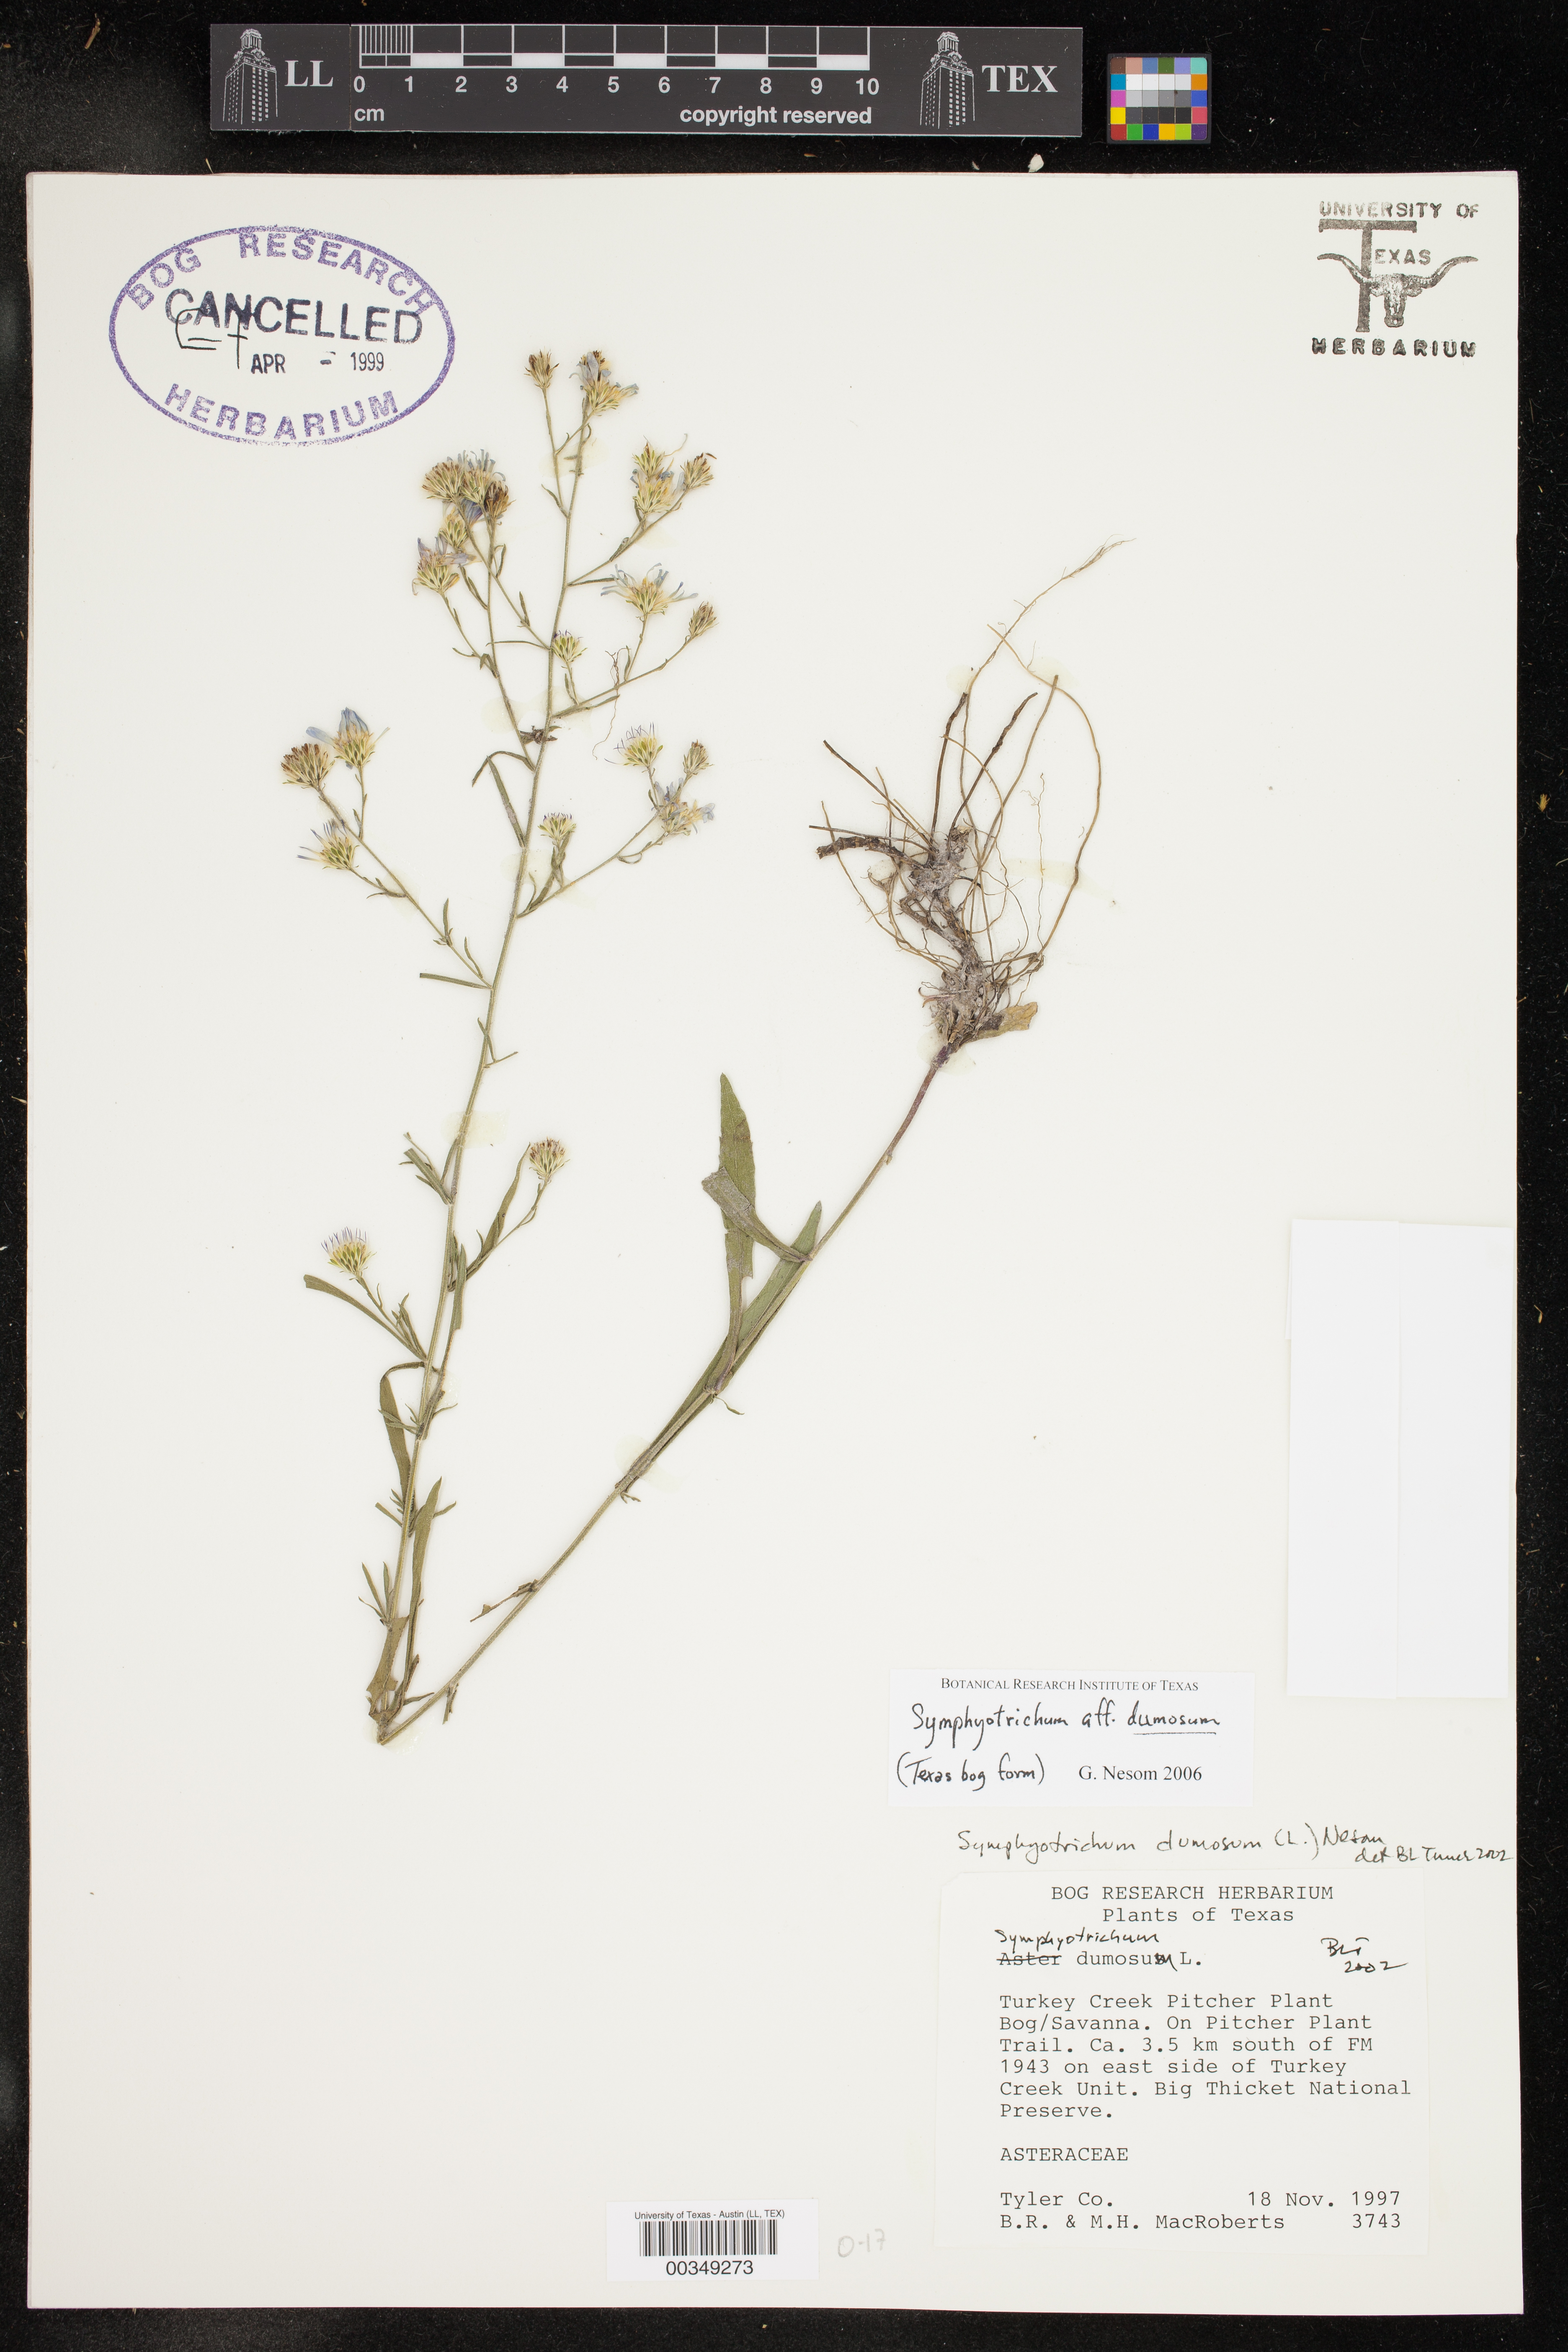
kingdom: Plantae
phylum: Tracheophyta
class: Magnoliopsida
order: Asterales
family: Asteraceae
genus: Symphyotrichum
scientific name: Symphyotrichum dumosum
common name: Bushy aster
